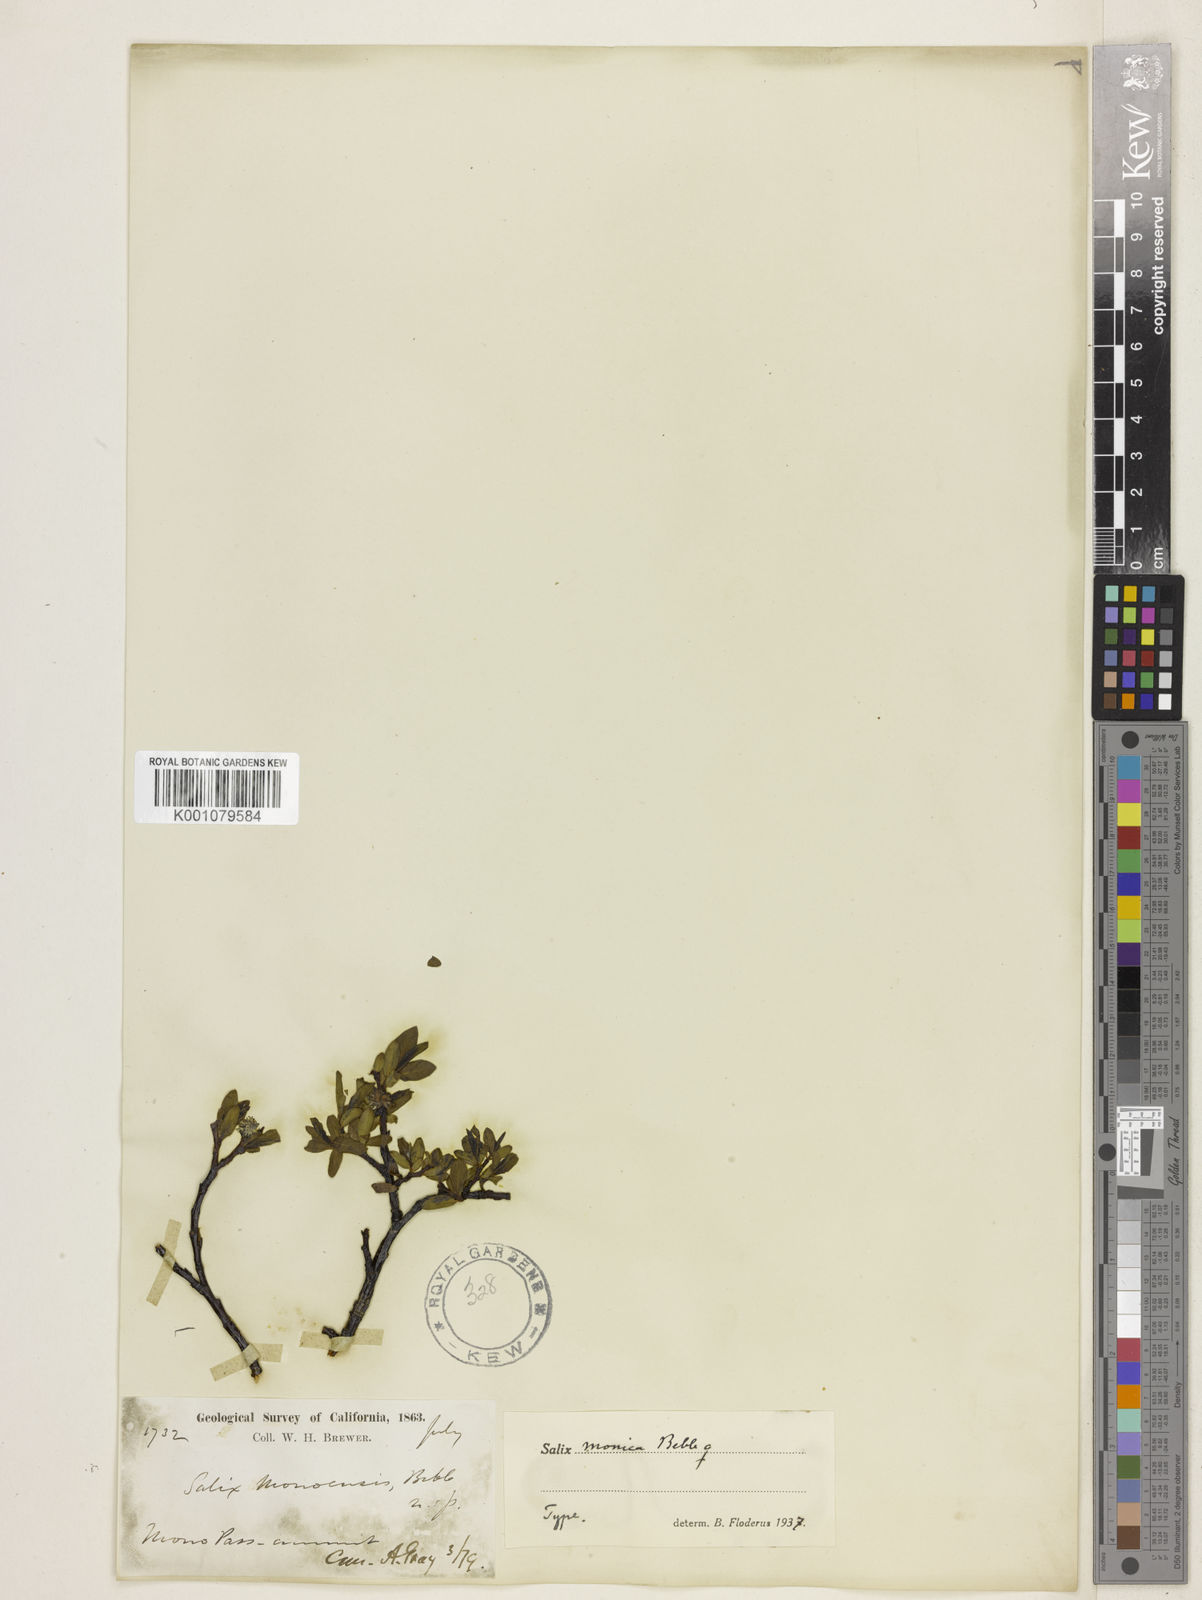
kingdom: Plantae
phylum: Tracheophyta
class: Magnoliopsida
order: Malpighiales
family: Salicaceae
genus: Salix
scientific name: Salix planifolia
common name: Mountain willow
